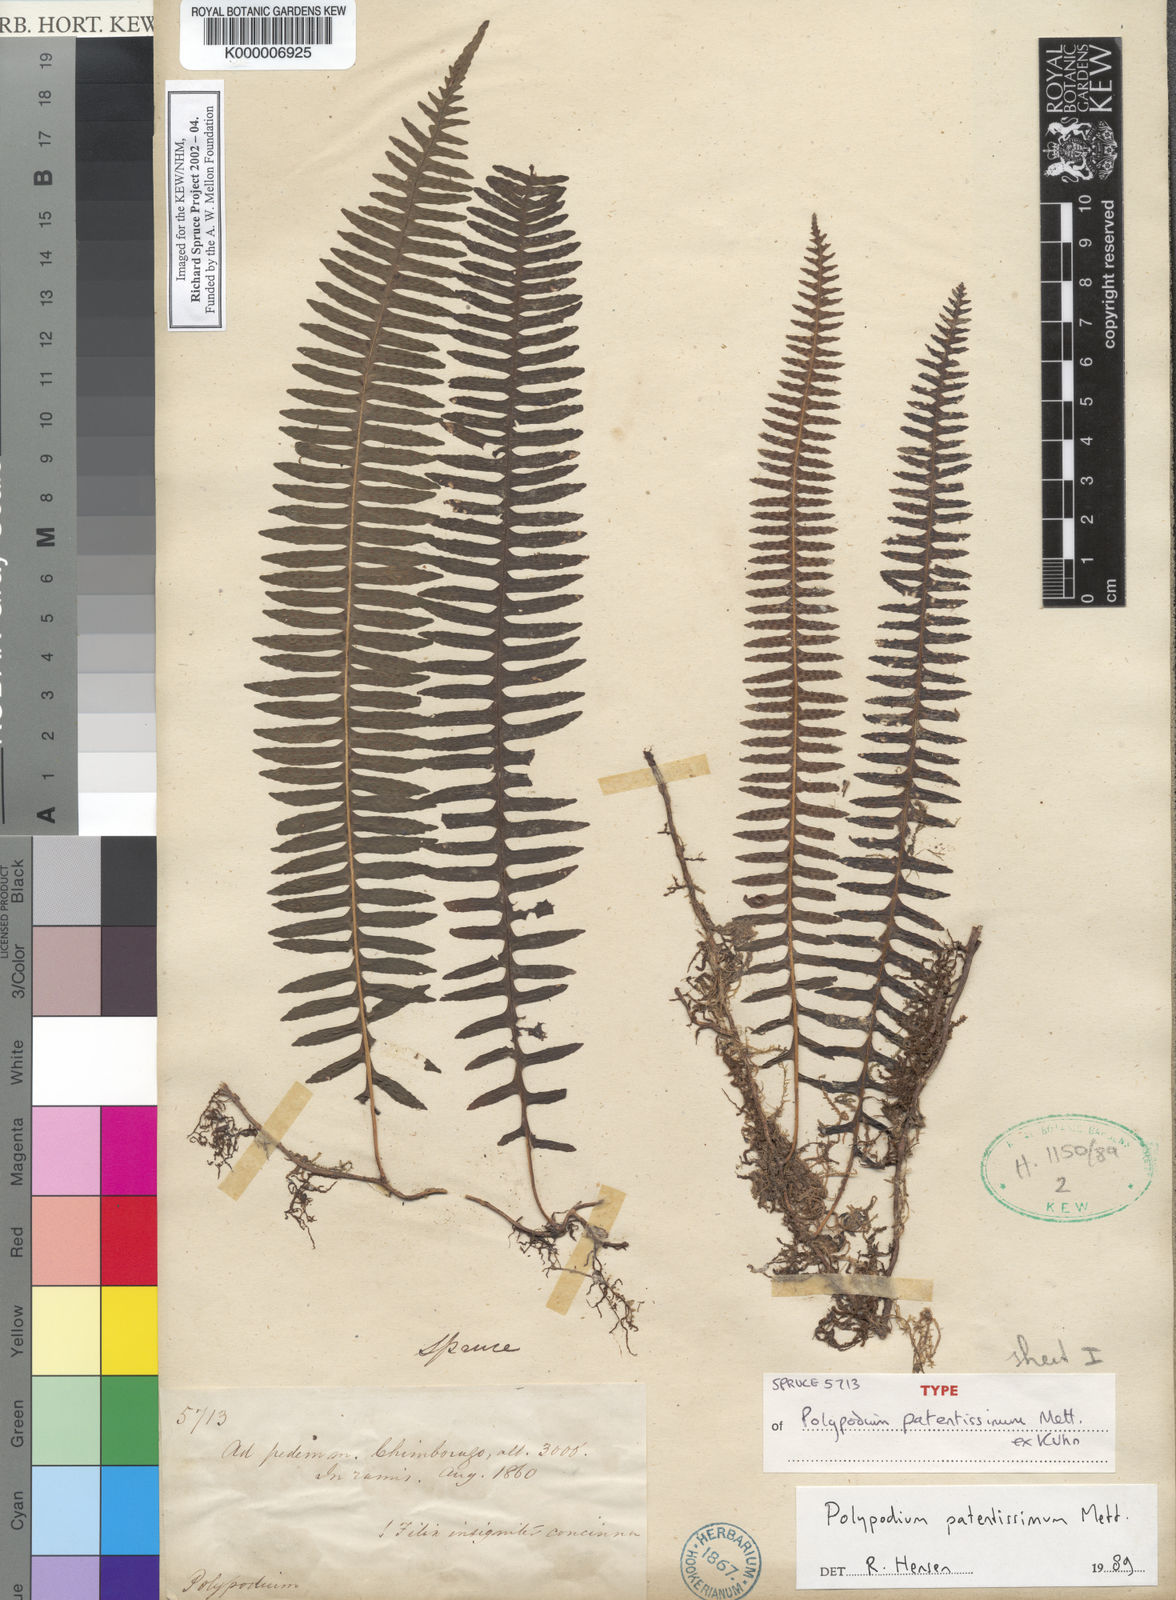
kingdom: Plantae
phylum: Tracheophyta
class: Polypodiopsida
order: Polypodiales
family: Polypodiaceae
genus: Serpocaulon
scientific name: Serpocaulon patentissimum
